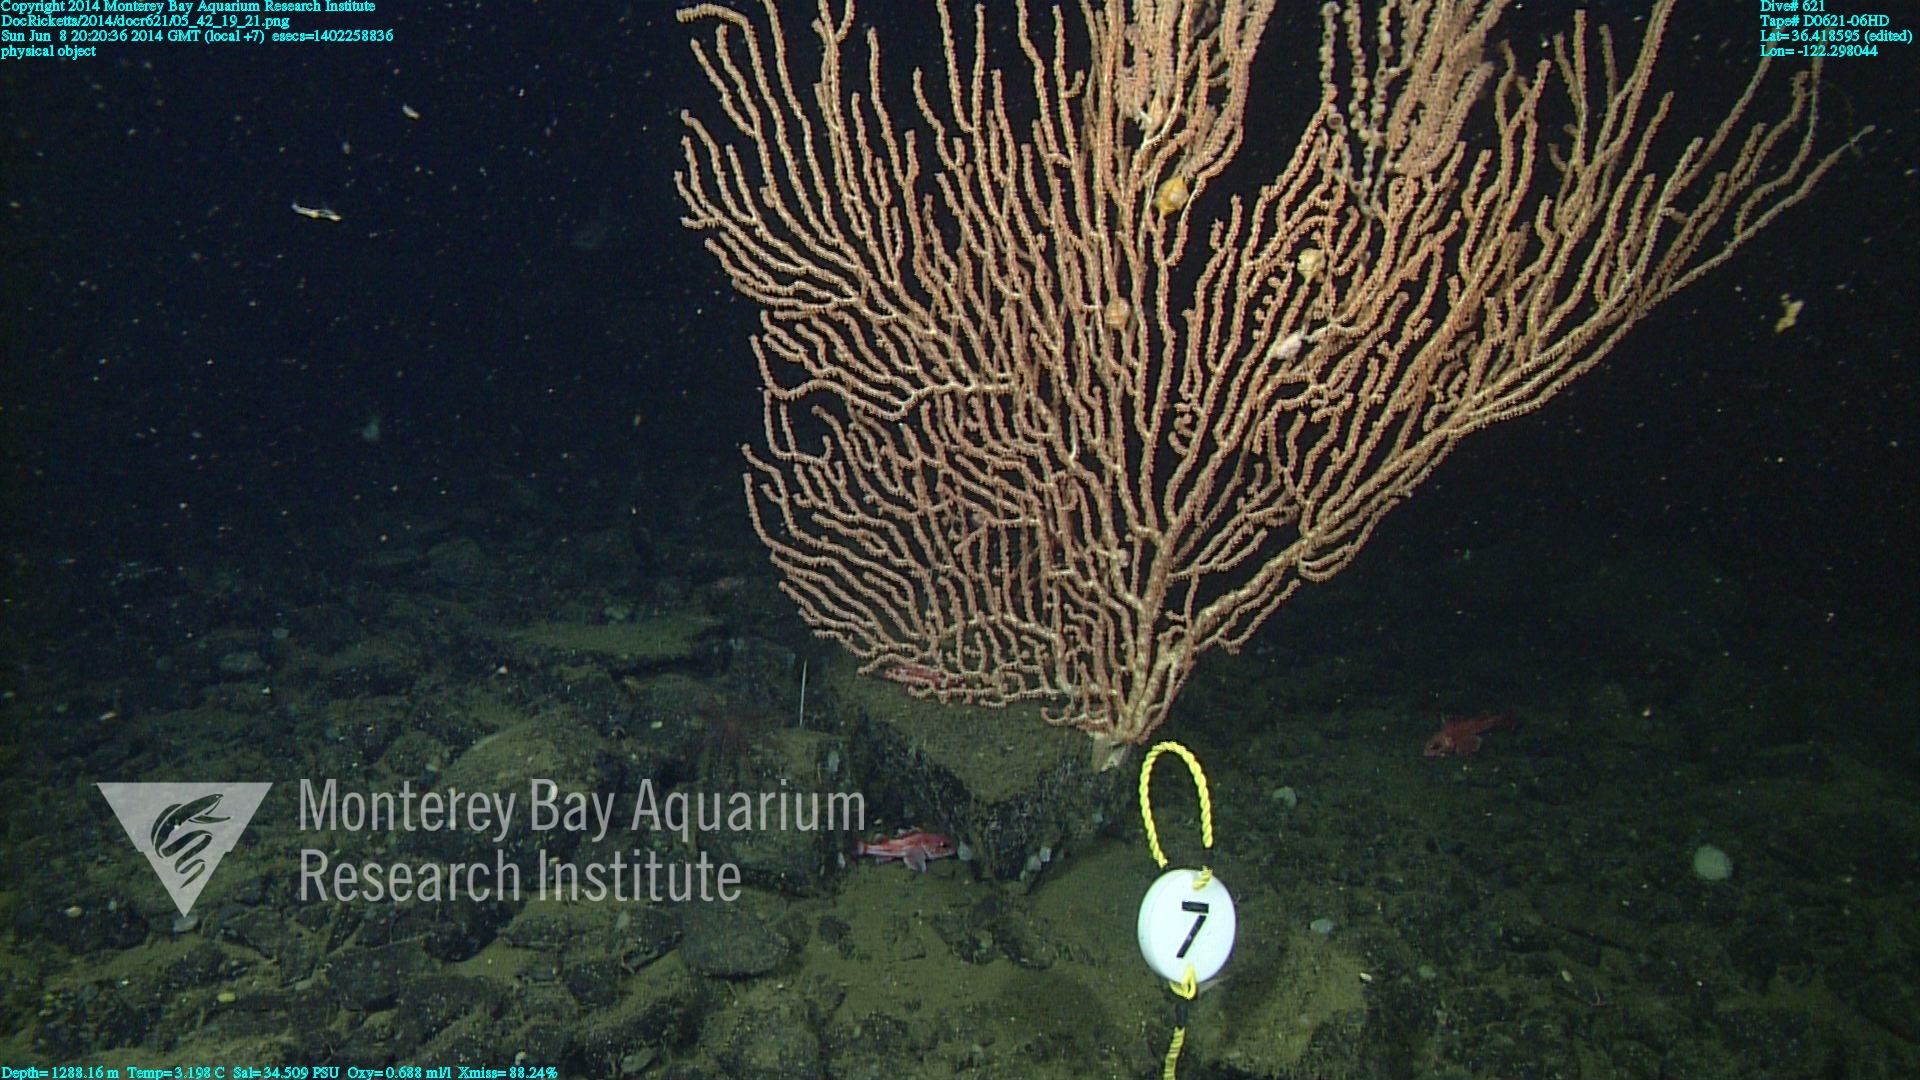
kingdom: Animalia
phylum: Cnidaria
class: Anthozoa
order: Scleralcyonacea
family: Keratoisididae
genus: Keratoisis
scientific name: Keratoisis
